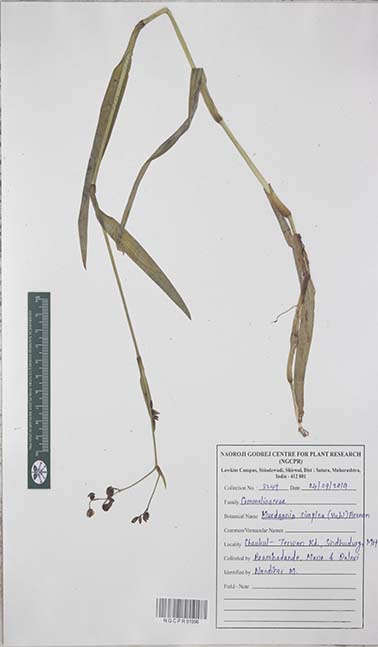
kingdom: Plantae
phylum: Tracheophyta
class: Liliopsida
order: Commelinales
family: Commelinaceae
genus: Murdannia
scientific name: Murdannia simplex
